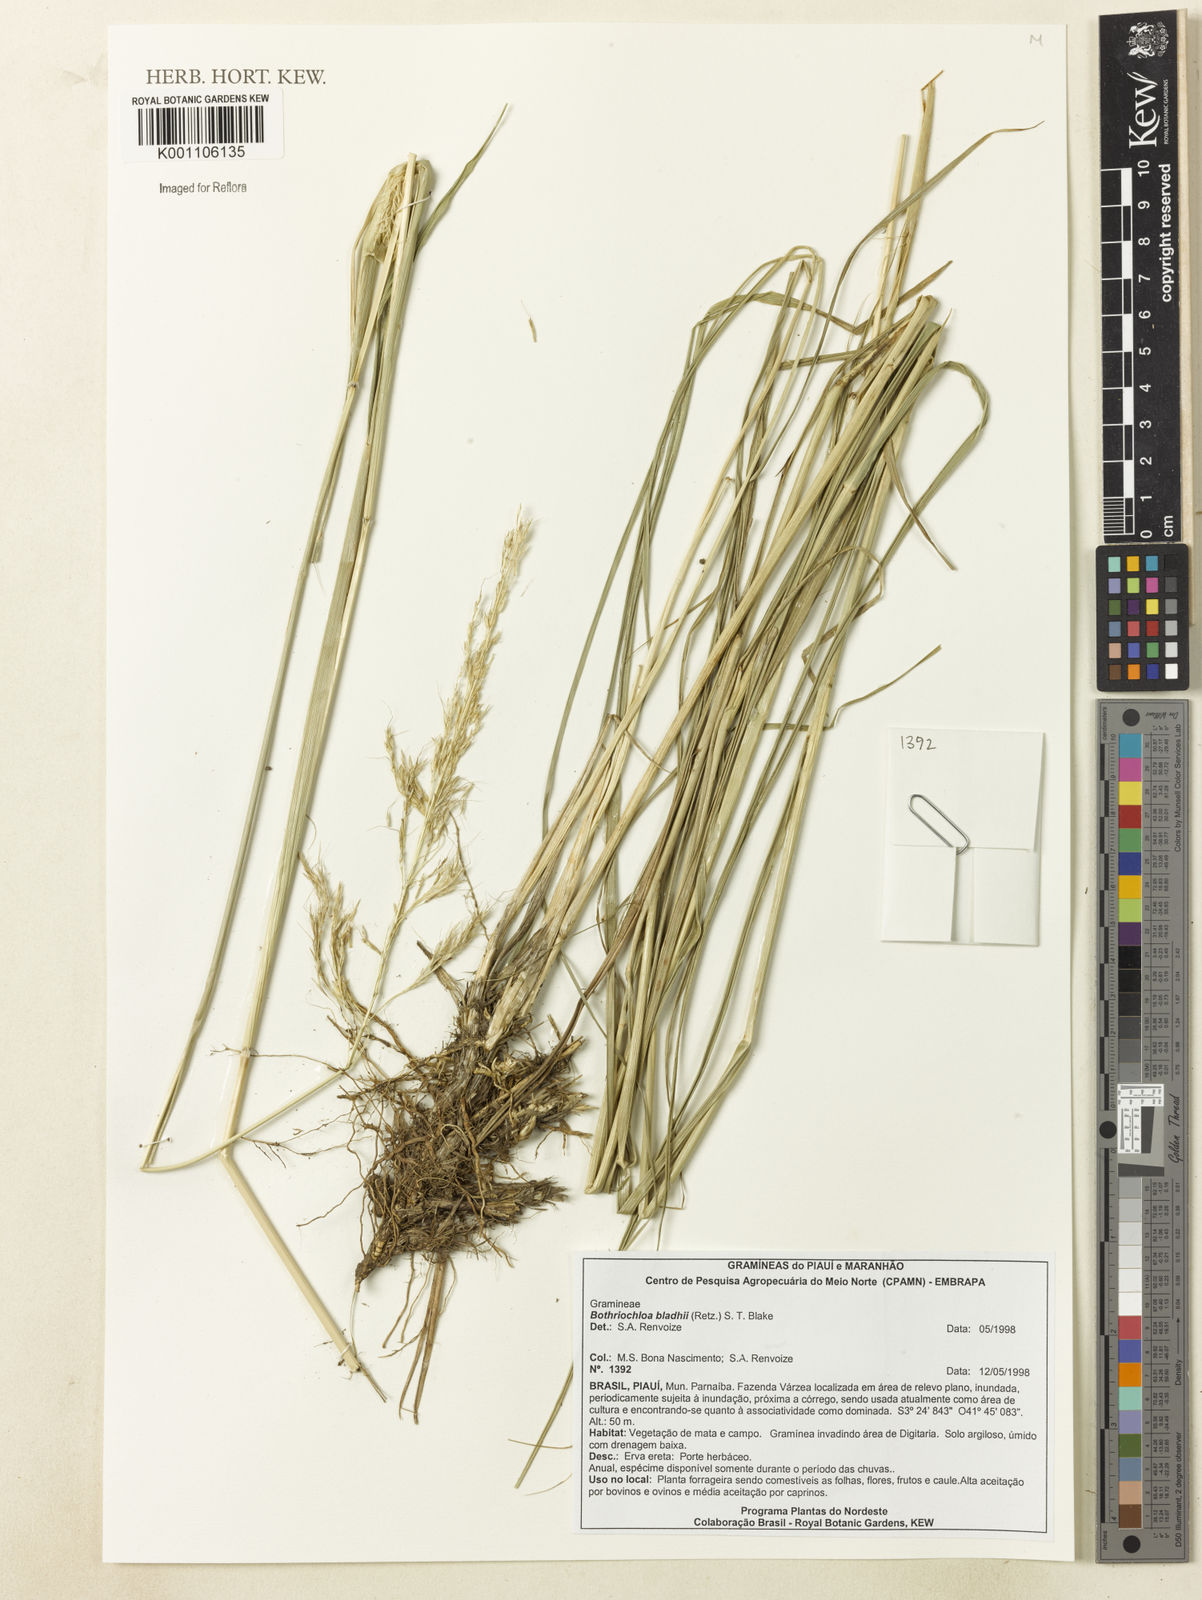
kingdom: Plantae
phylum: Tracheophyta
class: Liliopsida
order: Poales
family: Poaceae
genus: Bothriochloa
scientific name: Bothriochloa bladhii
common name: Caucasian bluestem
